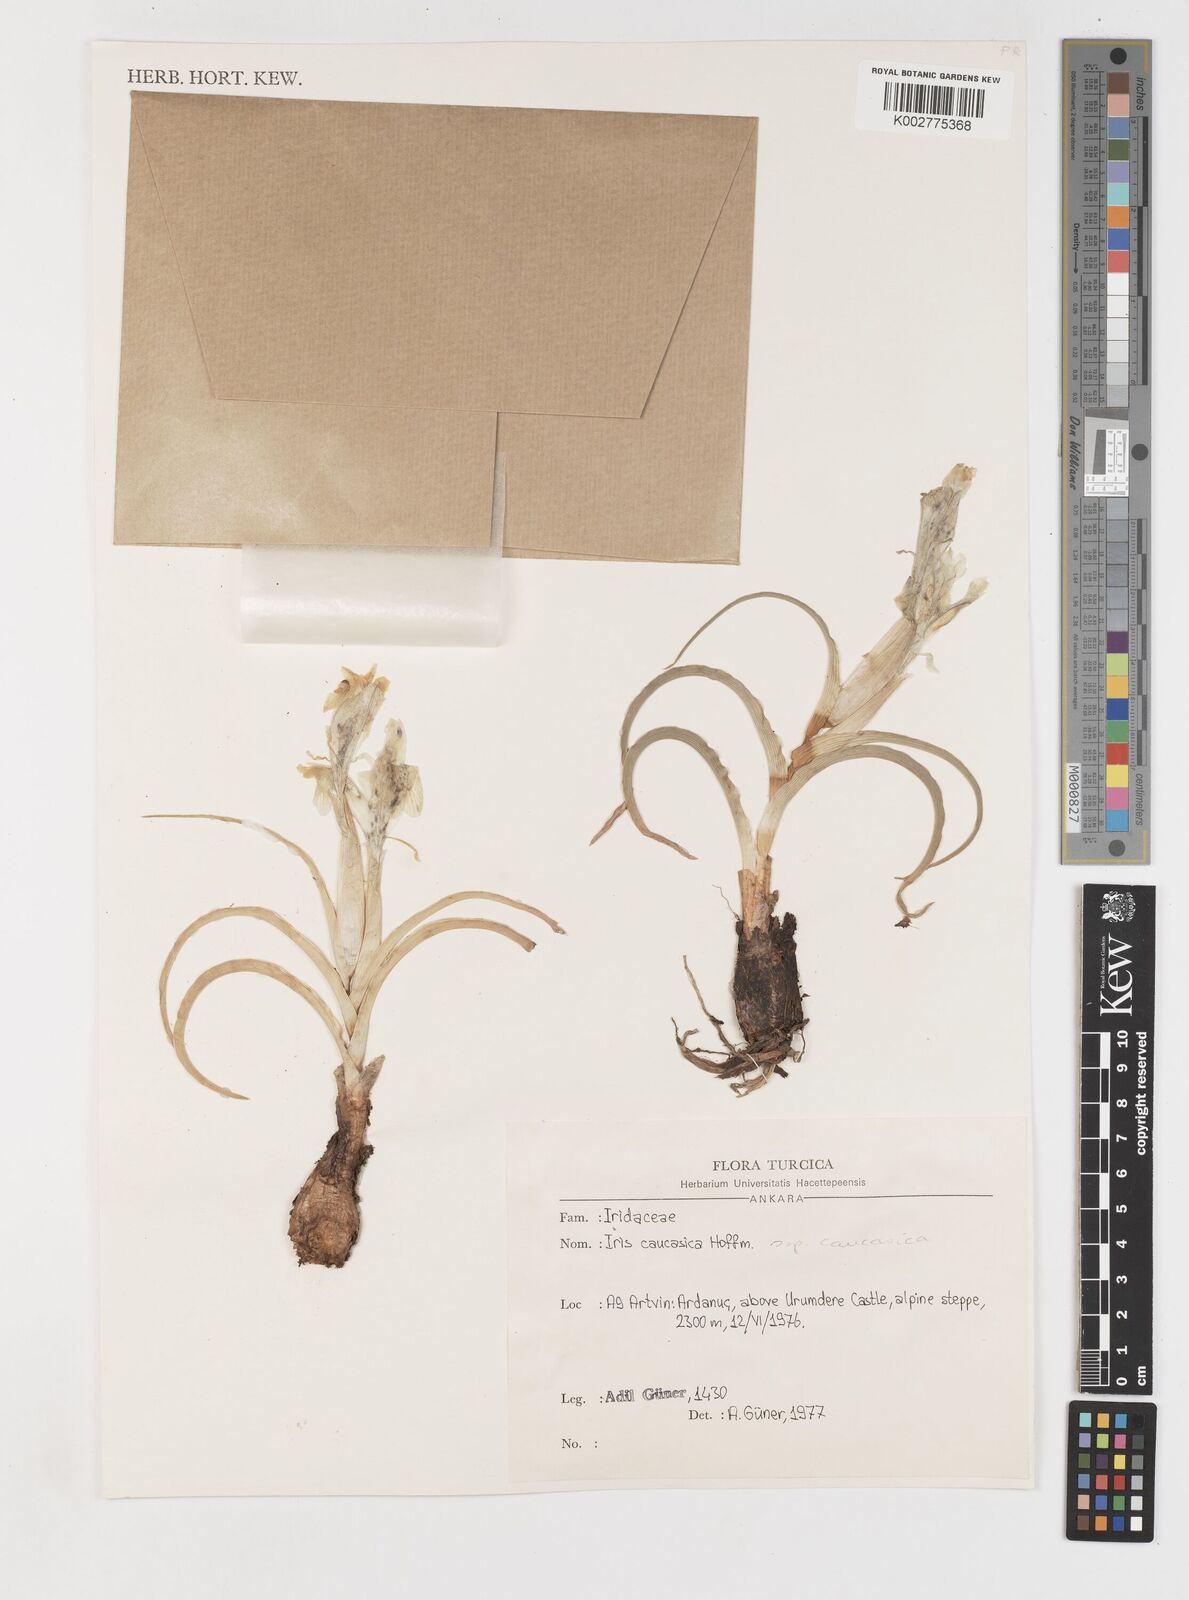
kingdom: Plantae
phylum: Tracheophyta
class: Liliopsida
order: Asparagales
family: Iridaceae
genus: Iris
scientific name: Iris caucasica
